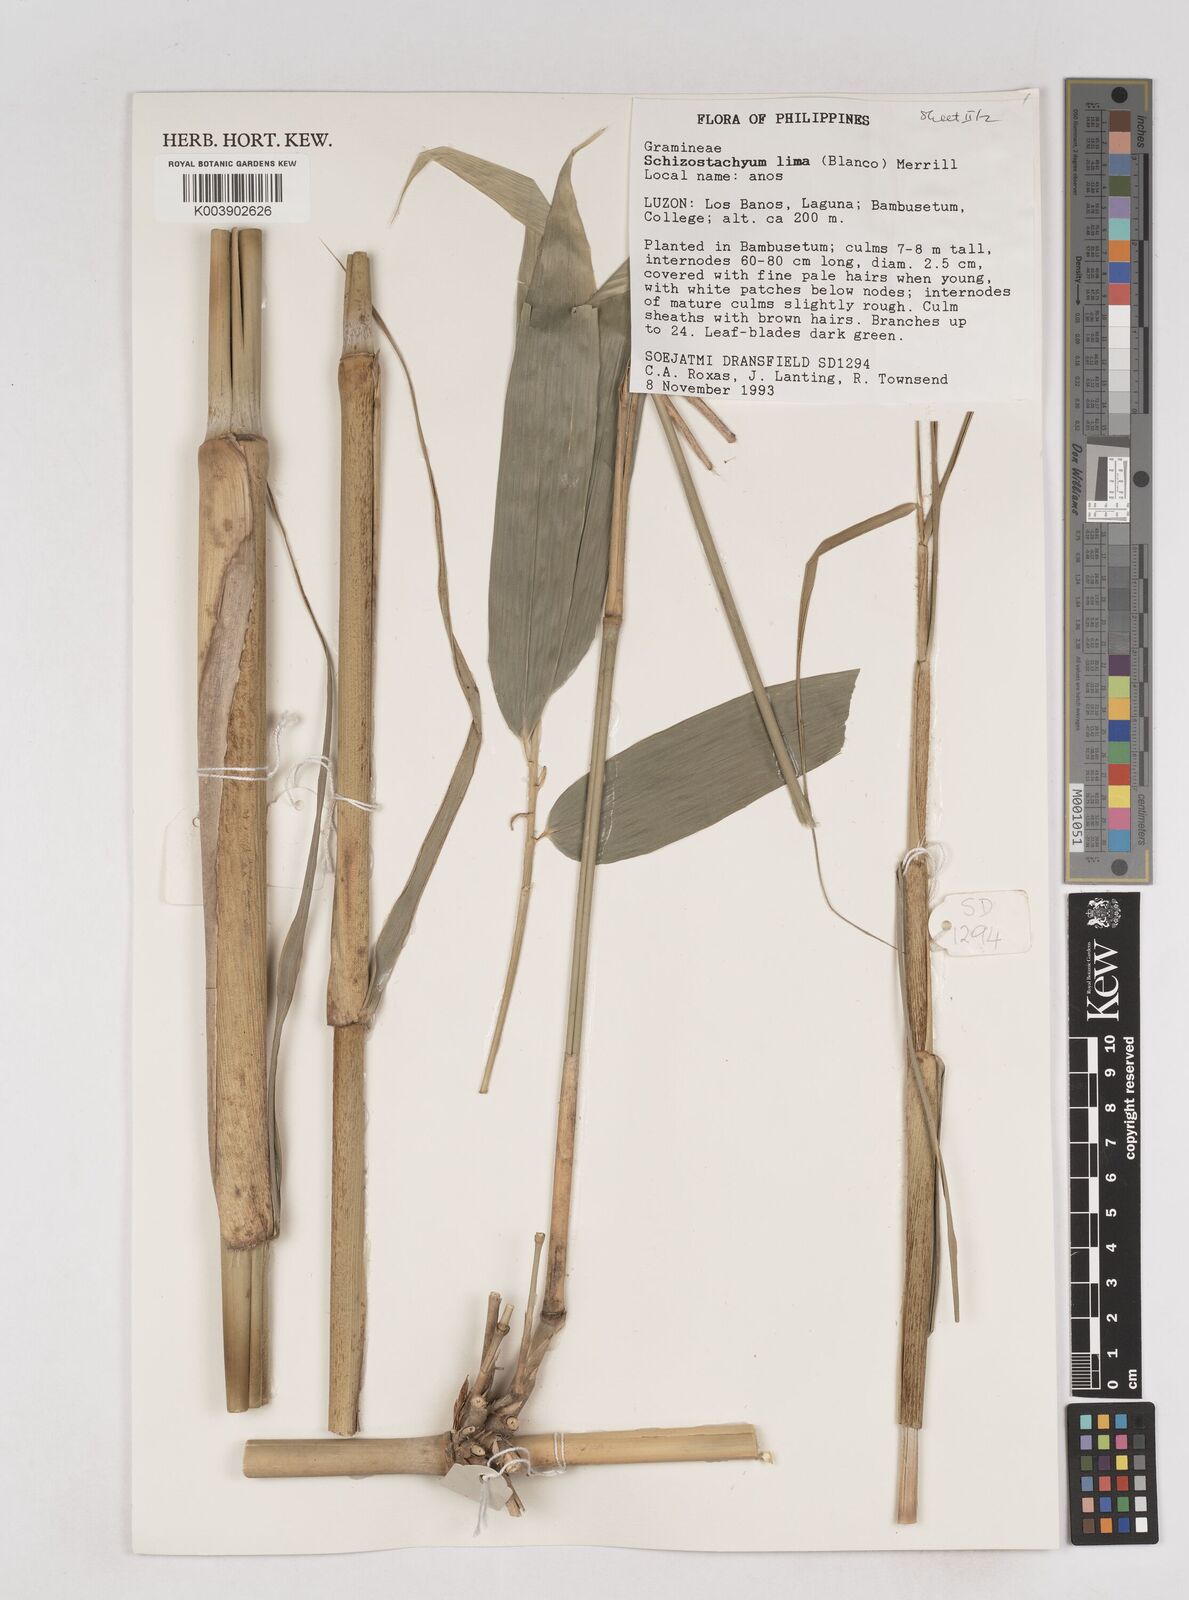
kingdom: Plantae
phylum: Tracheophyta
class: Liliopsida
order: Poales
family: Poaceae
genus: Schizostachyum
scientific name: Schizostachyum lima
